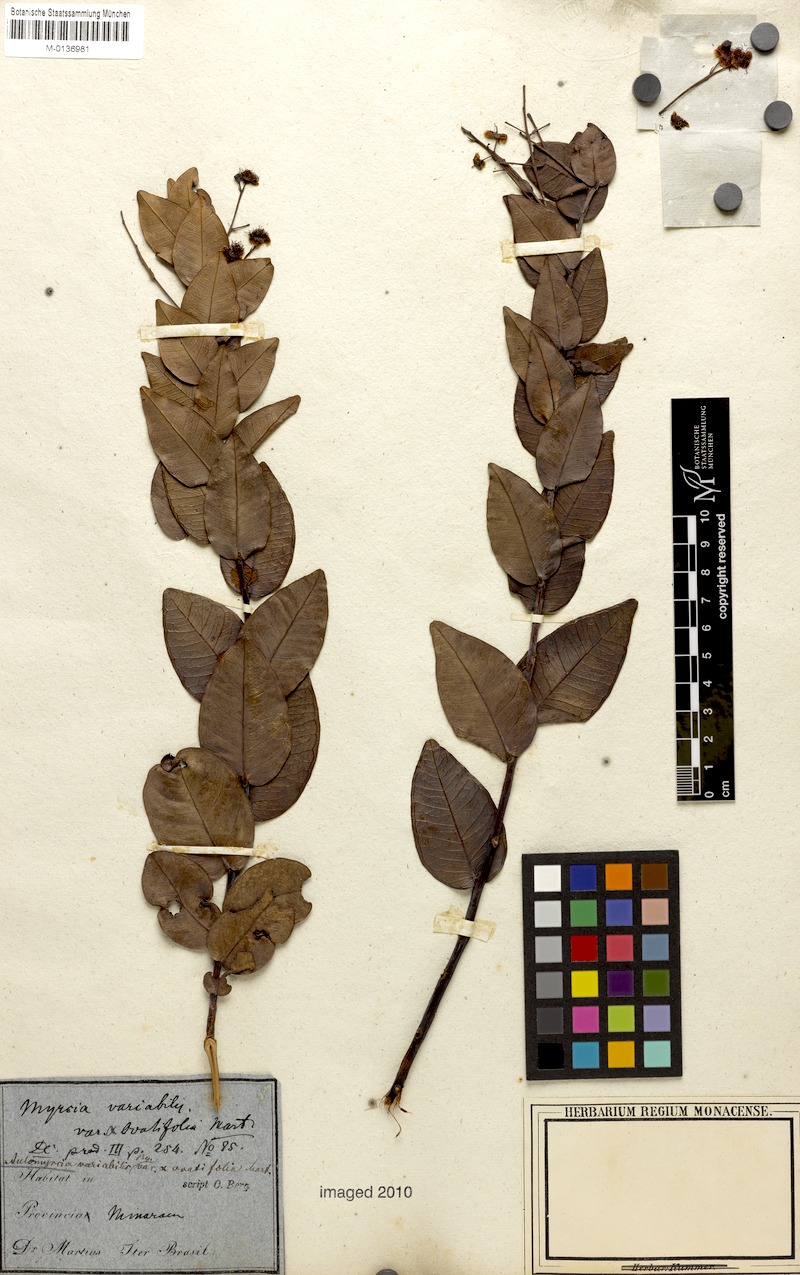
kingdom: Plantae
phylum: Tracheophyta
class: Magnoliopsida
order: Myrtales
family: Myrtaceae
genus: Myrcia
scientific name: Myrcia variabilis
